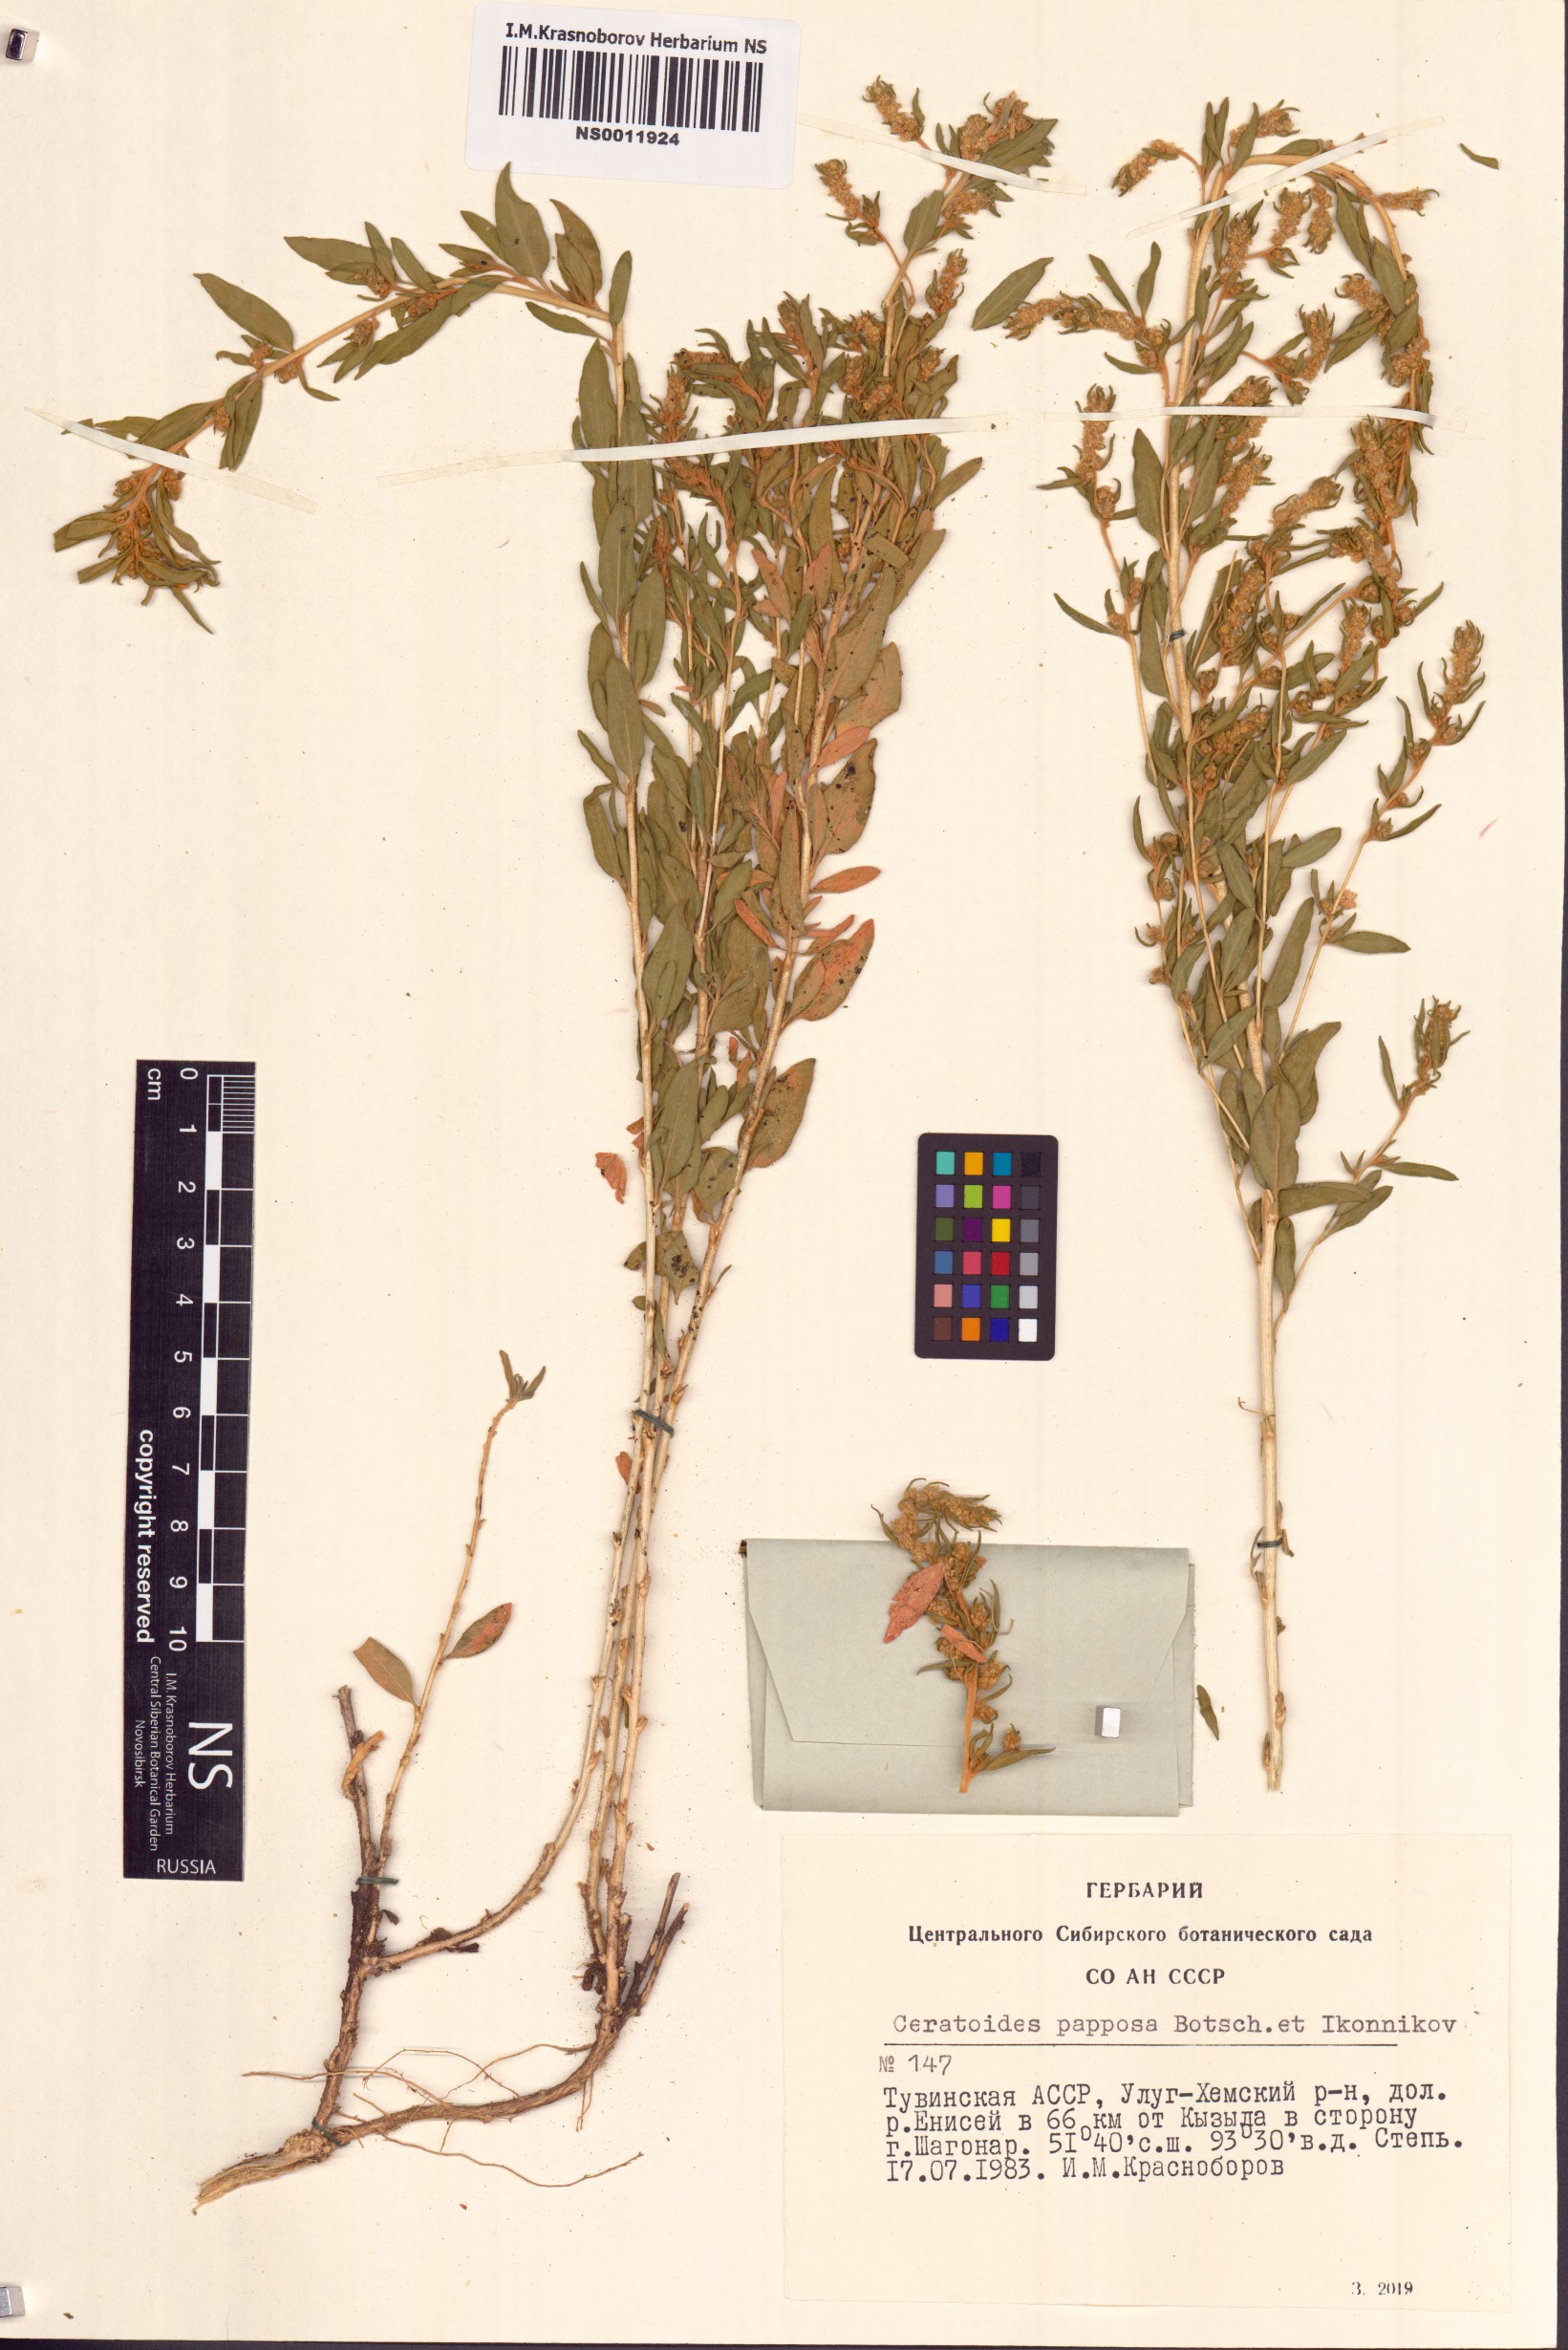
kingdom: Plantae
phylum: Tracheophyta
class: Magnoliopsida
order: Caryophyllales
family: Amaranthaceae
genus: Krascheninnikovia
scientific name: Krascheninnikovia ceratoides
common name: Pamirian winterfat
